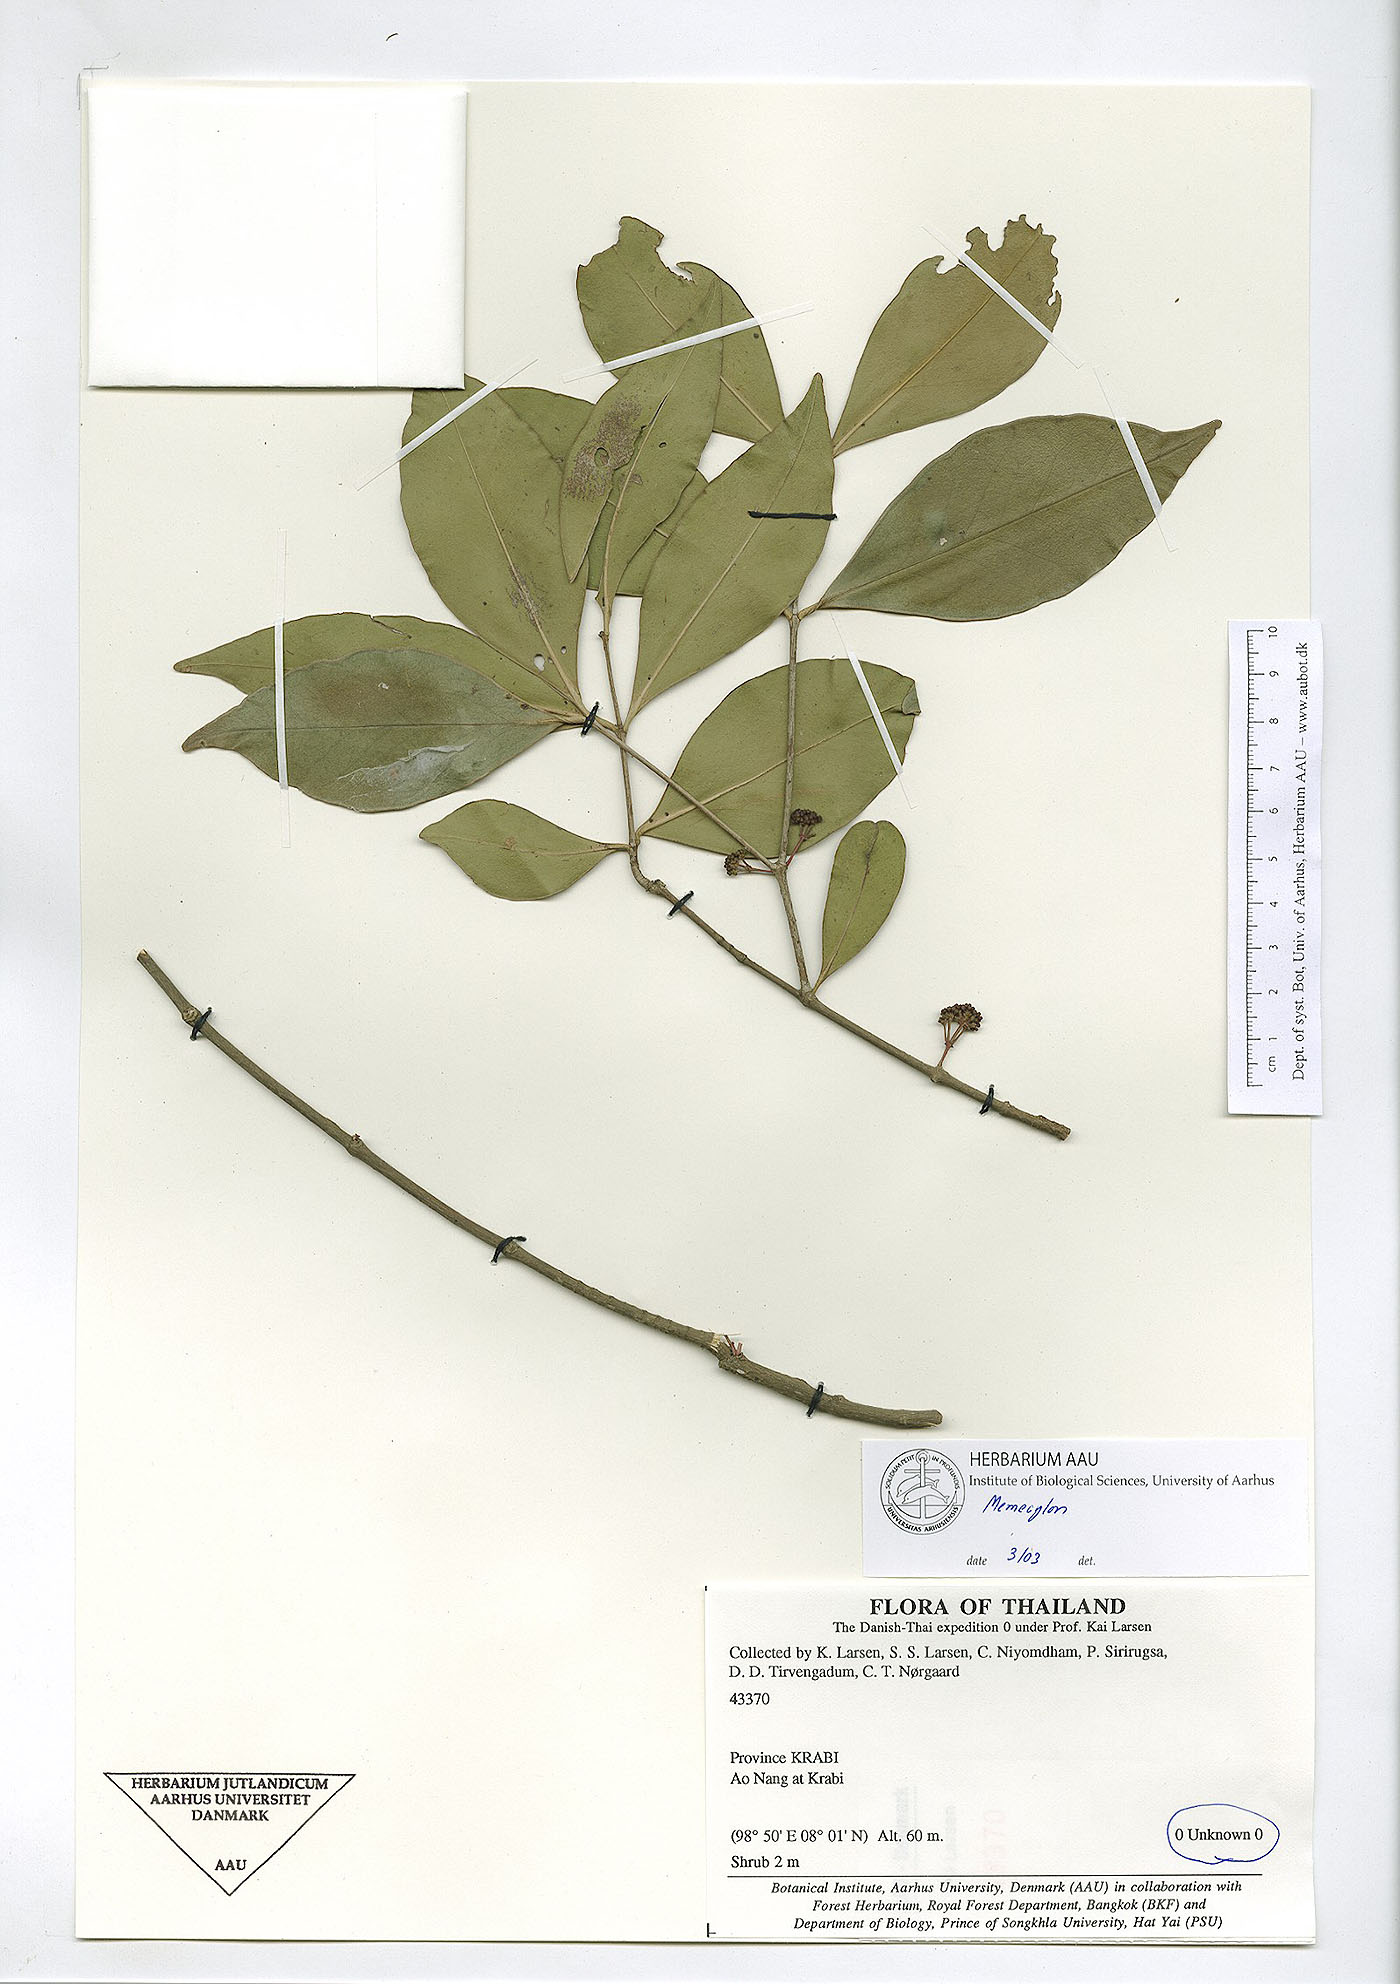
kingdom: Plantae
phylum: Tracheophyta
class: Magnoliopsida
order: Myrtales
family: Melastomataceae
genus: Memecylon
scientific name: Memecylon scutellatum
